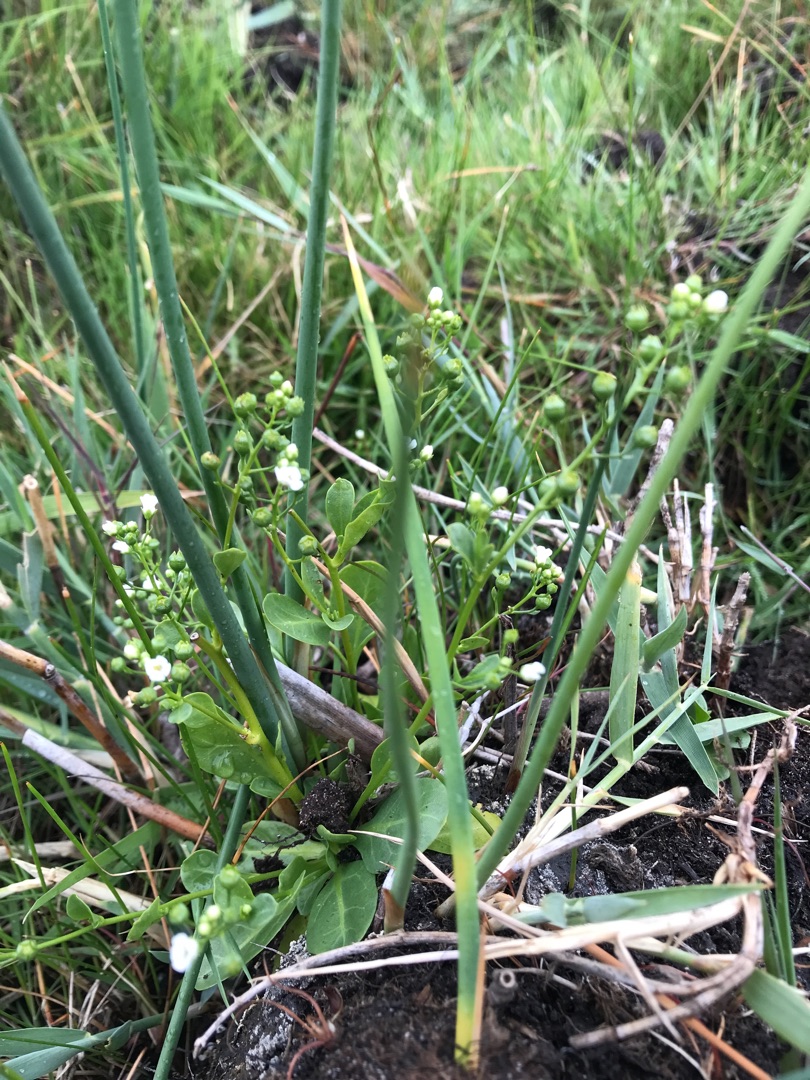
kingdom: Plantae
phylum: Tracheophyta
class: Magnoliopsida
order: Ericales
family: Primulaceae
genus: Samolus
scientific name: Samolus valerandi
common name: Samel
